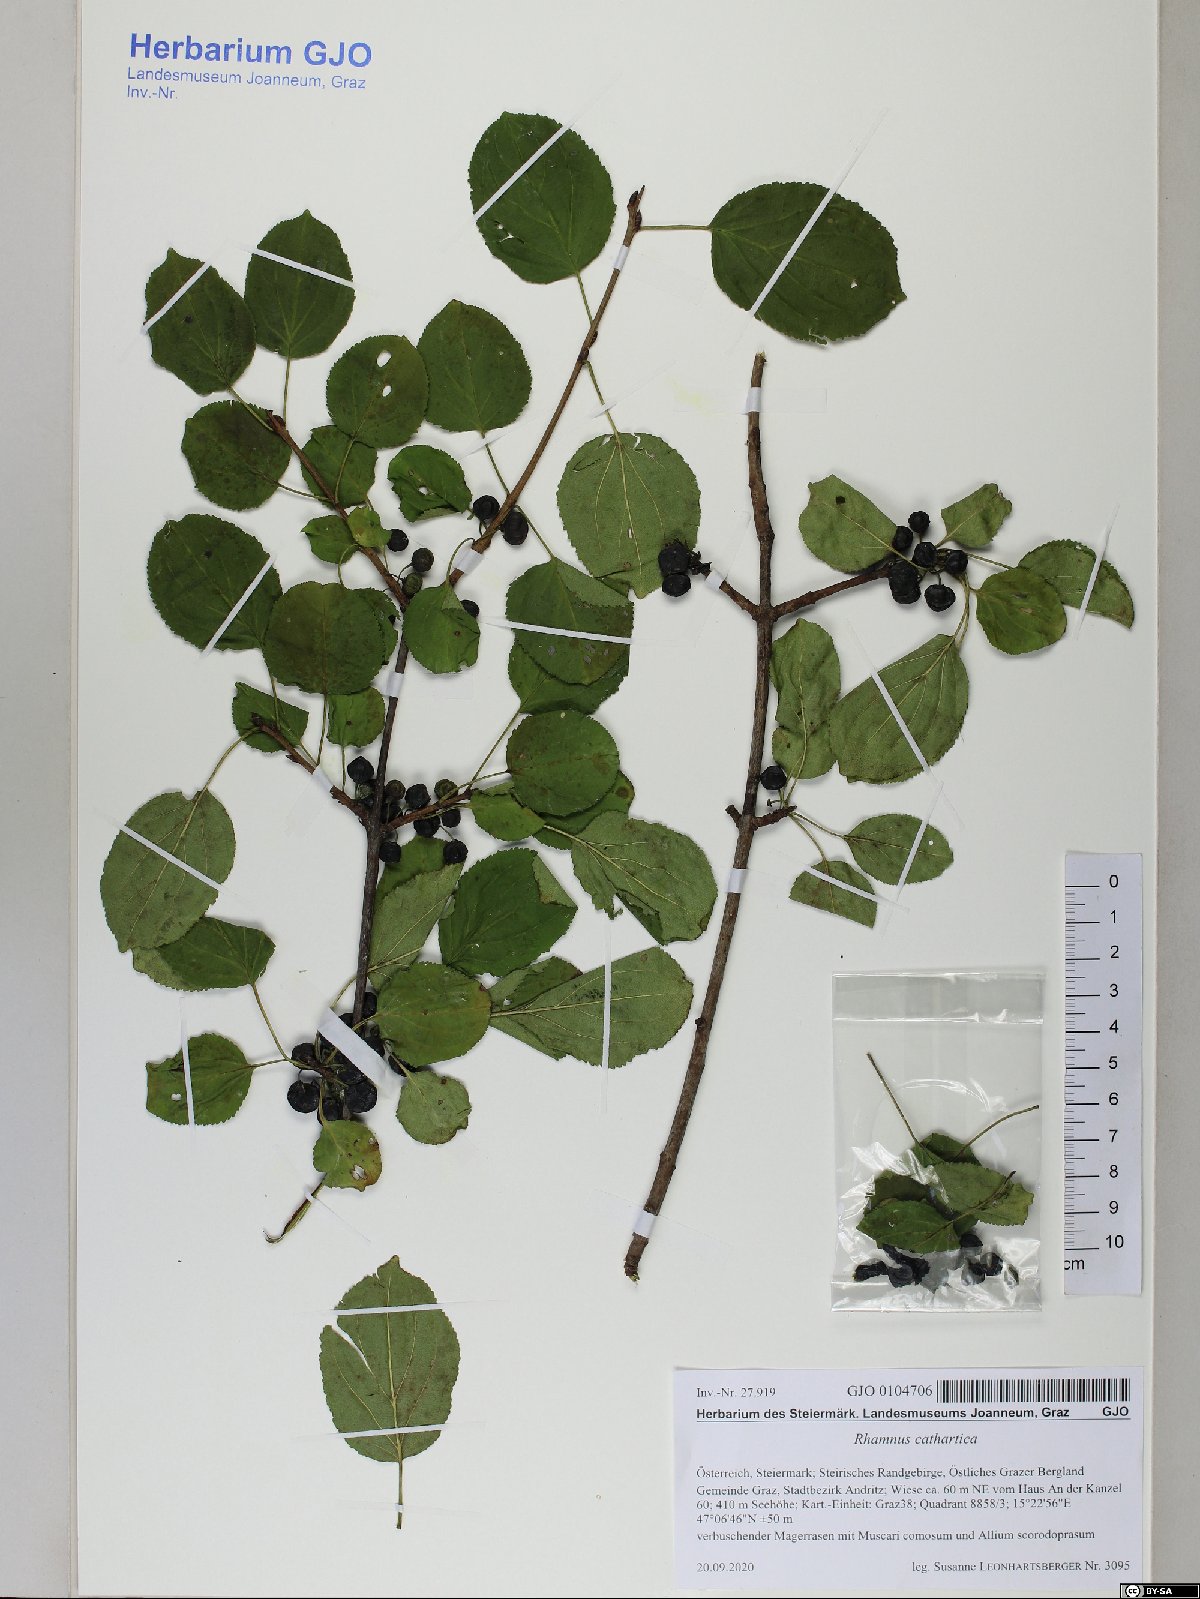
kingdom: Plantae
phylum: Tracheophyta
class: Magnoliopsida
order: Rosales
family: Rhamnaceae
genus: Rhamnus
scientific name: Rhamnus cathartica
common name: Common buckthorn
